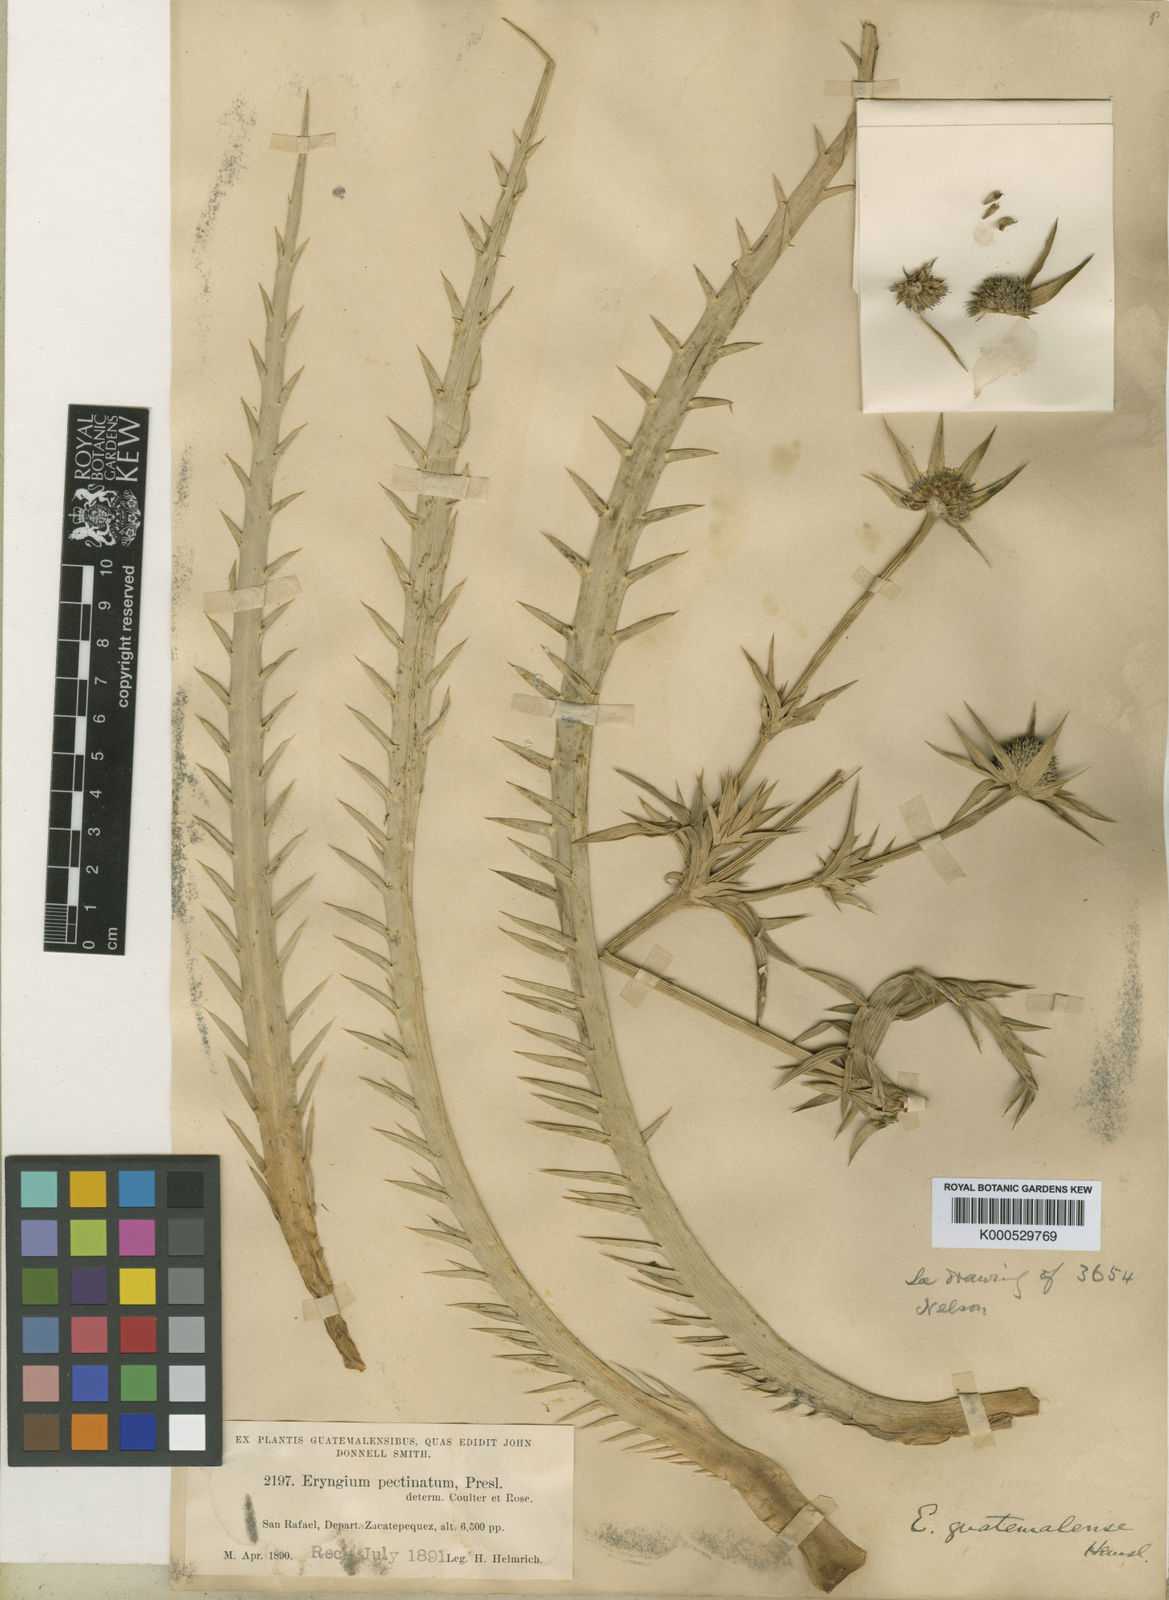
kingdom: Plantae
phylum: Tracheophyta
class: Magnoliopsida
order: Apiales
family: Apiaceae
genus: Eryngium
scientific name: Eryngium guatemalense
